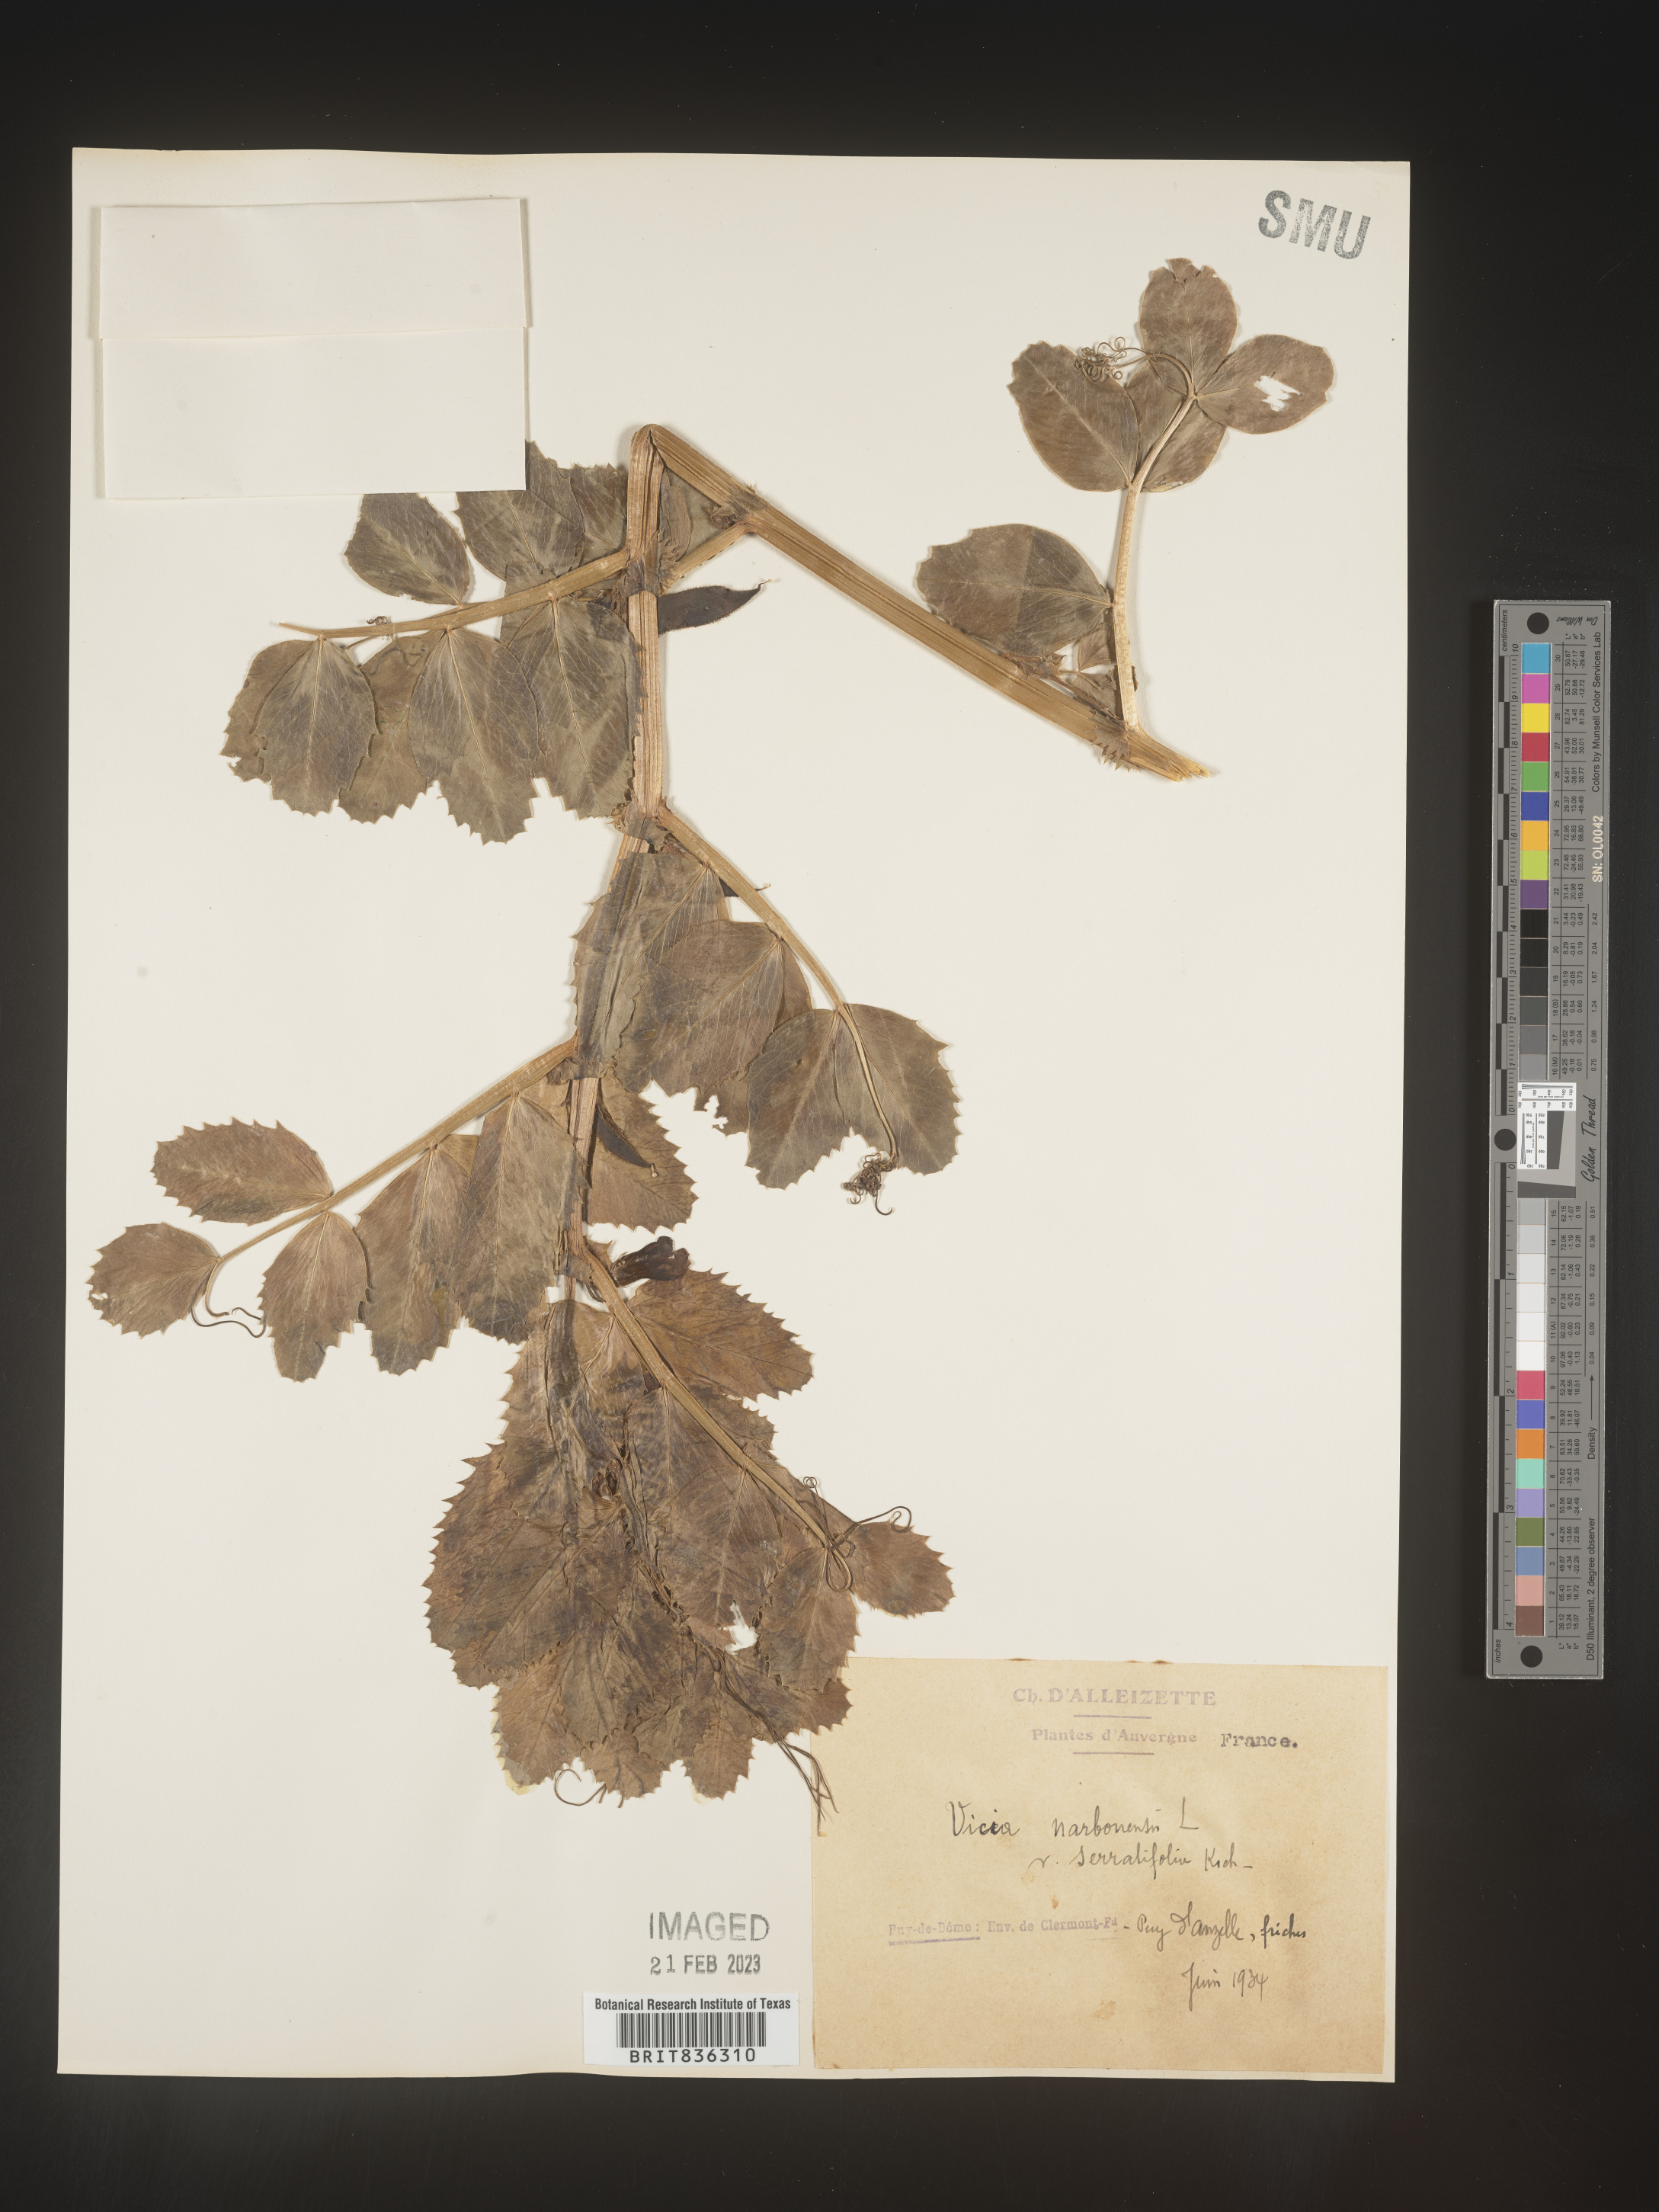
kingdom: Plantae
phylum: Tracheophyta
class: Magnoliopsida
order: Fabales
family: Fabaceae
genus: Vicia
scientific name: Vicia
